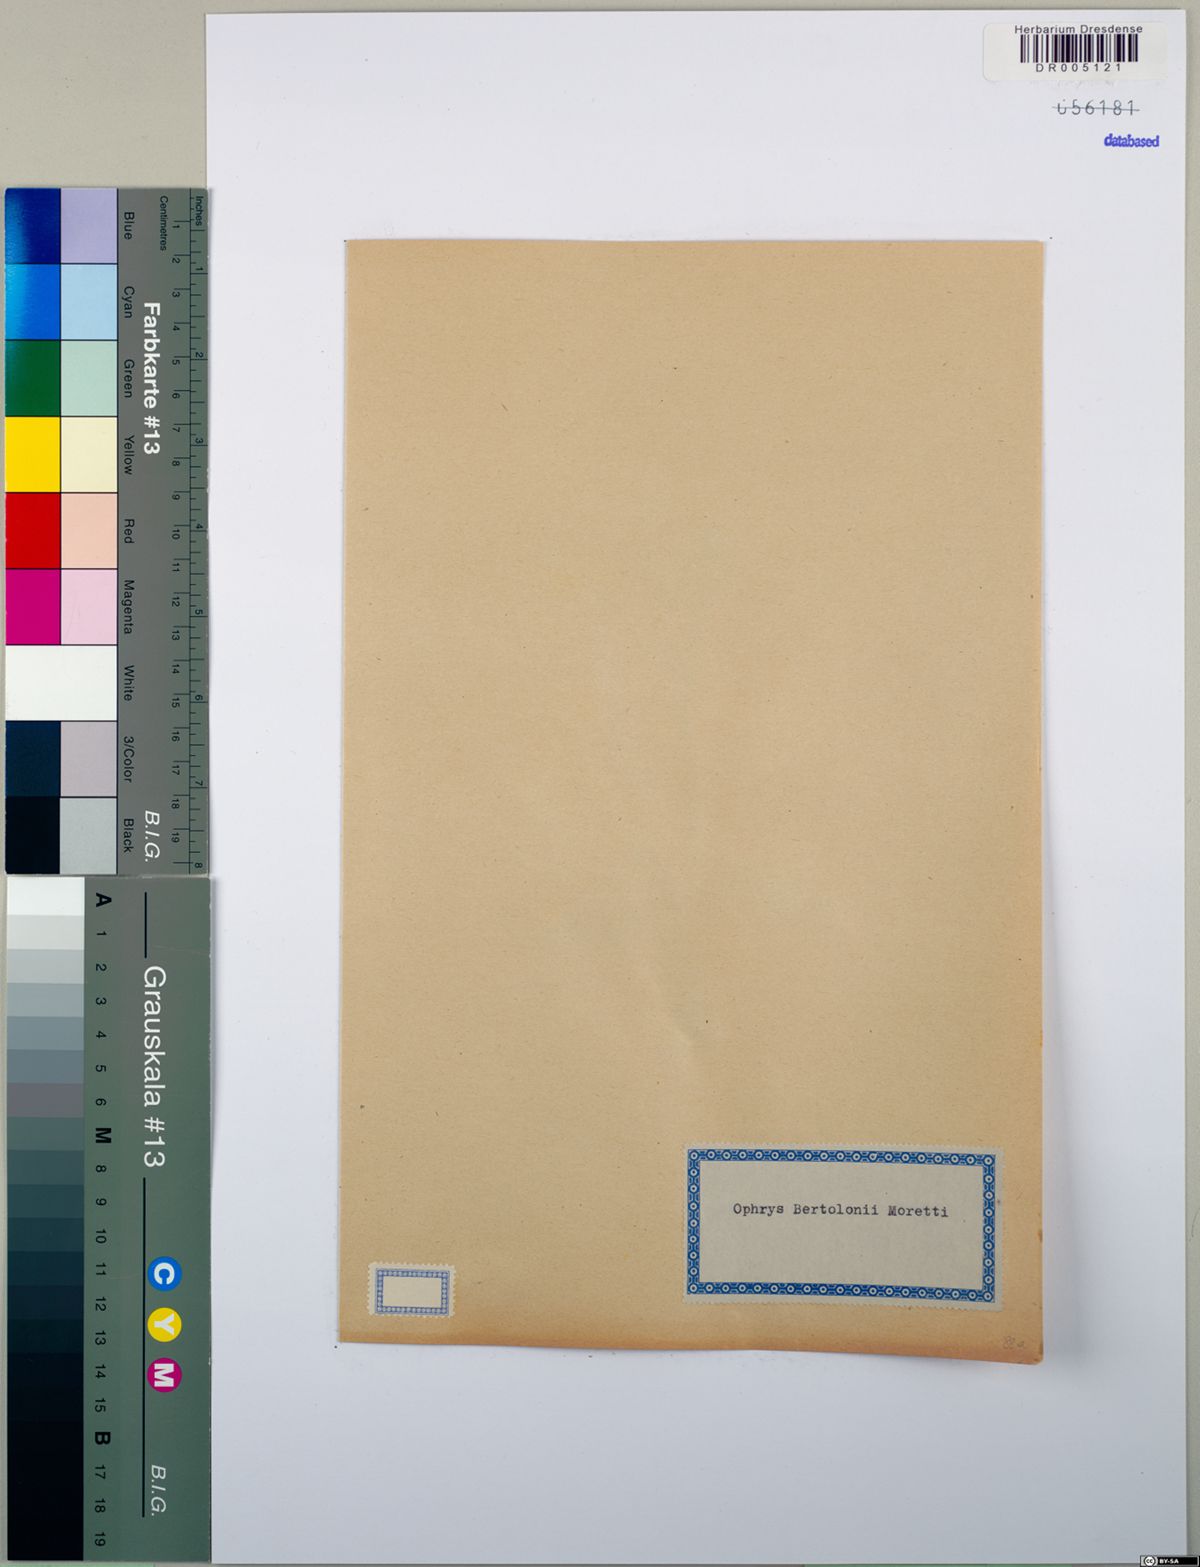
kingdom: Plantae
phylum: Tracheophyta
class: Liliopsida
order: Asparagales
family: Orchidaceae
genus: Ophrys
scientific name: Ophrys bertolonii
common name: Bertoloni's bee orchid
